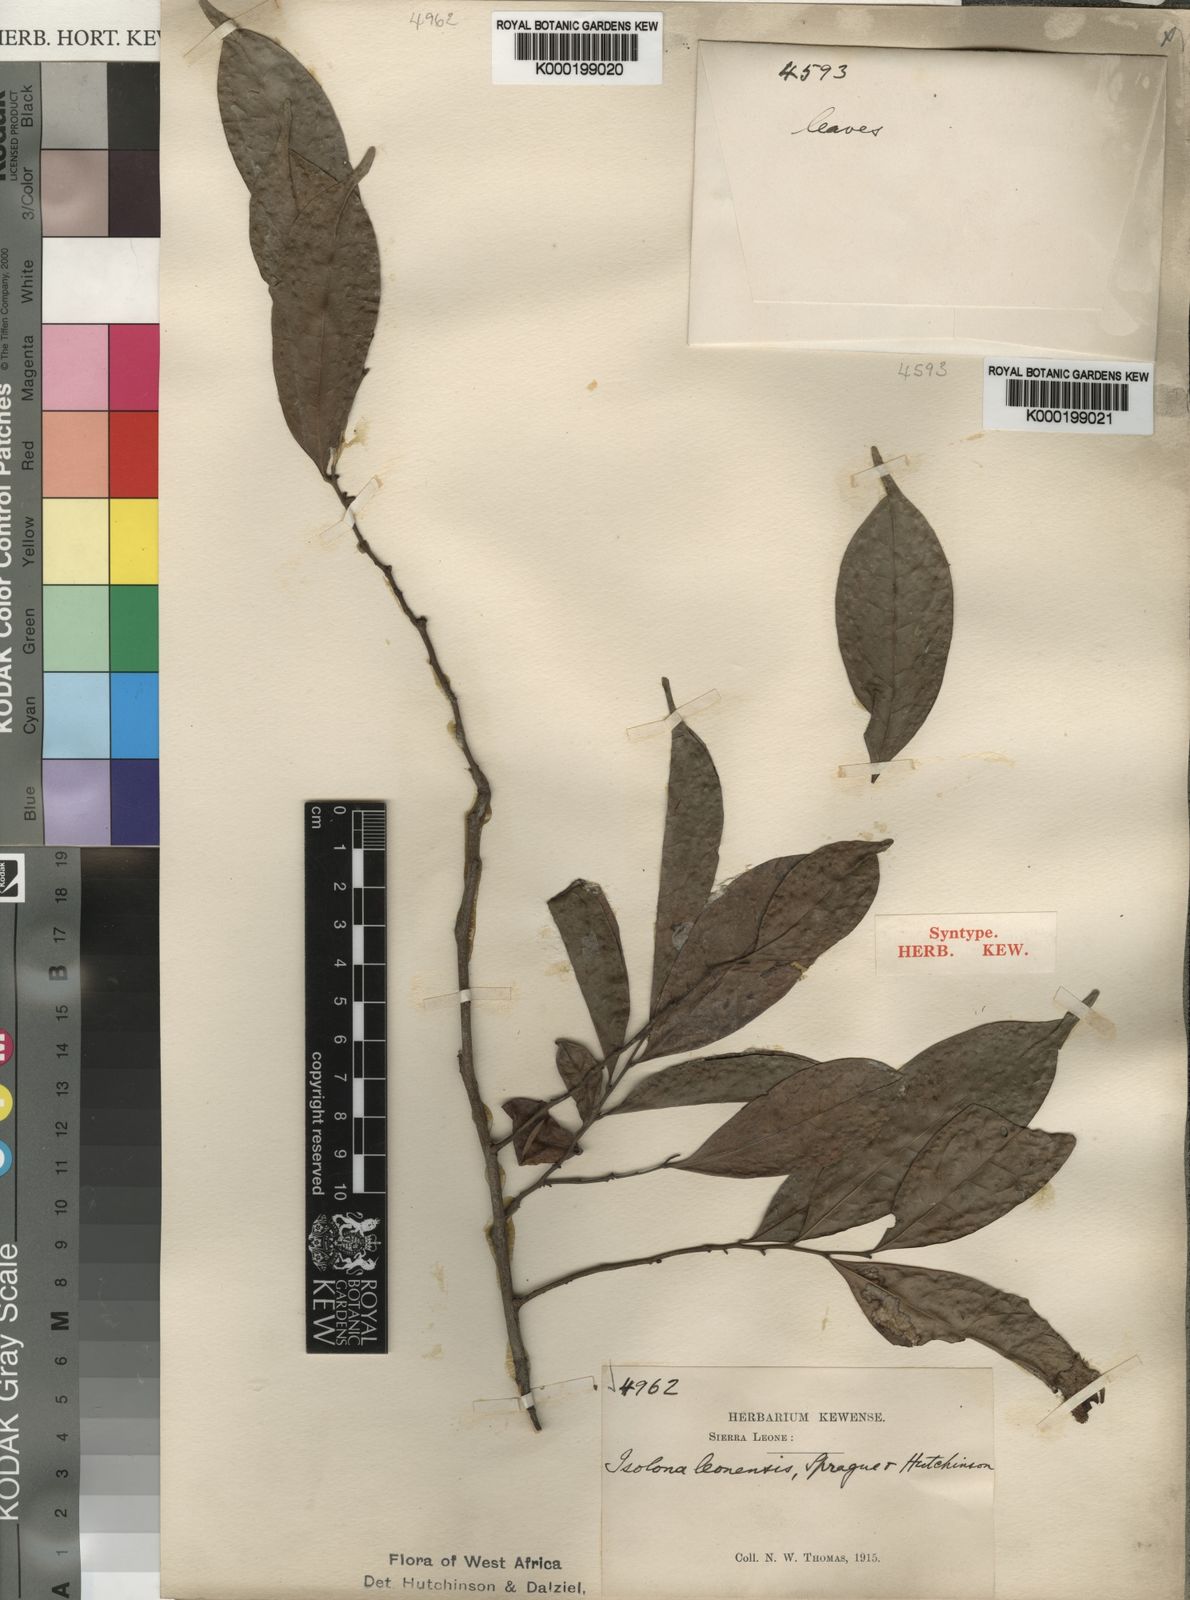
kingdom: Plantae
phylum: Tracheophyta
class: Magnoliopsida
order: Magnoliales
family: Annonaceae
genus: Isolona
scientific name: Isolona campanulata
